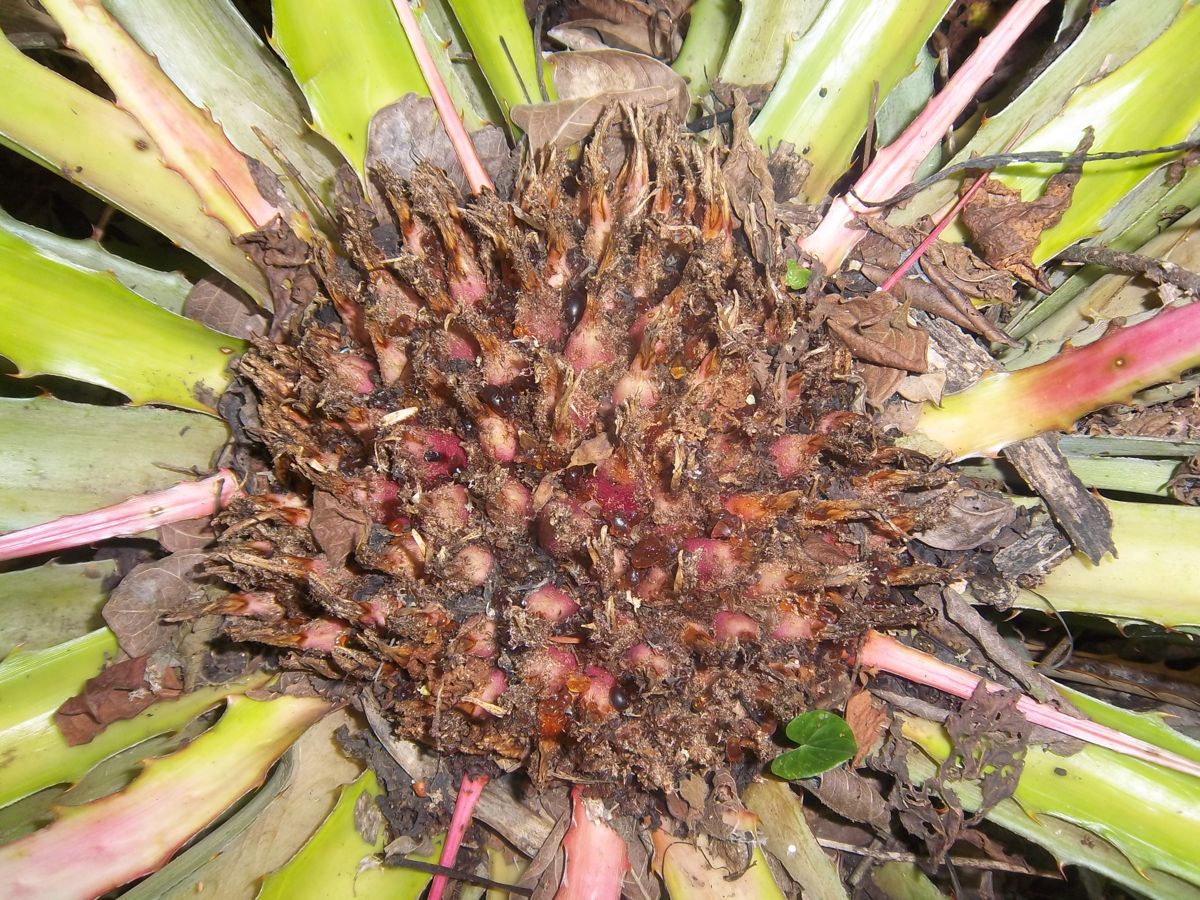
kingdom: Plantae
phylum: Tracheophyta
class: Liliopsida
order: Poales
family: Bromeliaceae
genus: Bromelia
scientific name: Bromelia karatas
